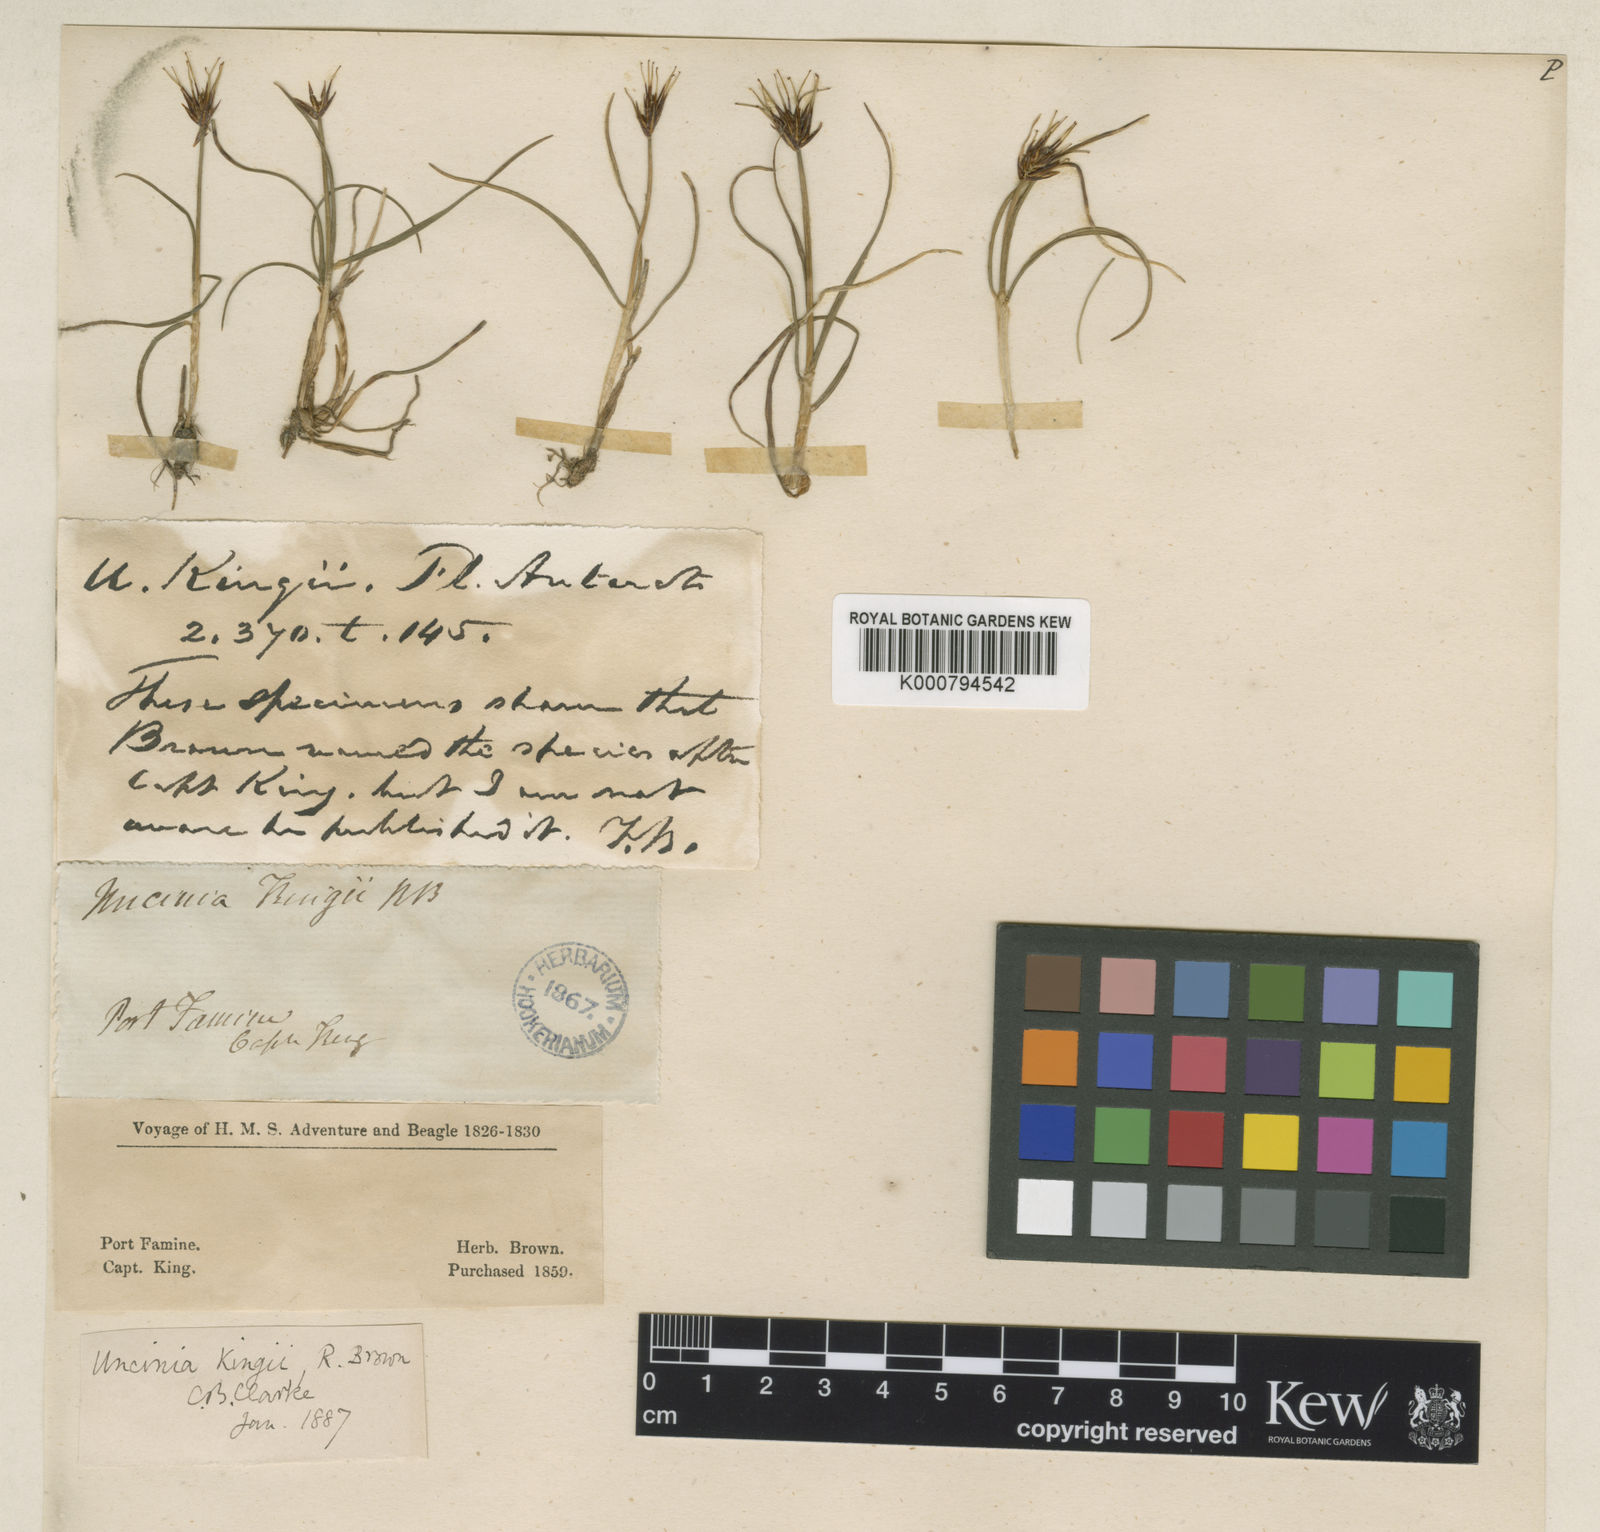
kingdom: Plantae
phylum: Tracheophyta
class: Liliopsida
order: Poales
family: Cyperaceae
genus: Carex
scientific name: Carex kingii
